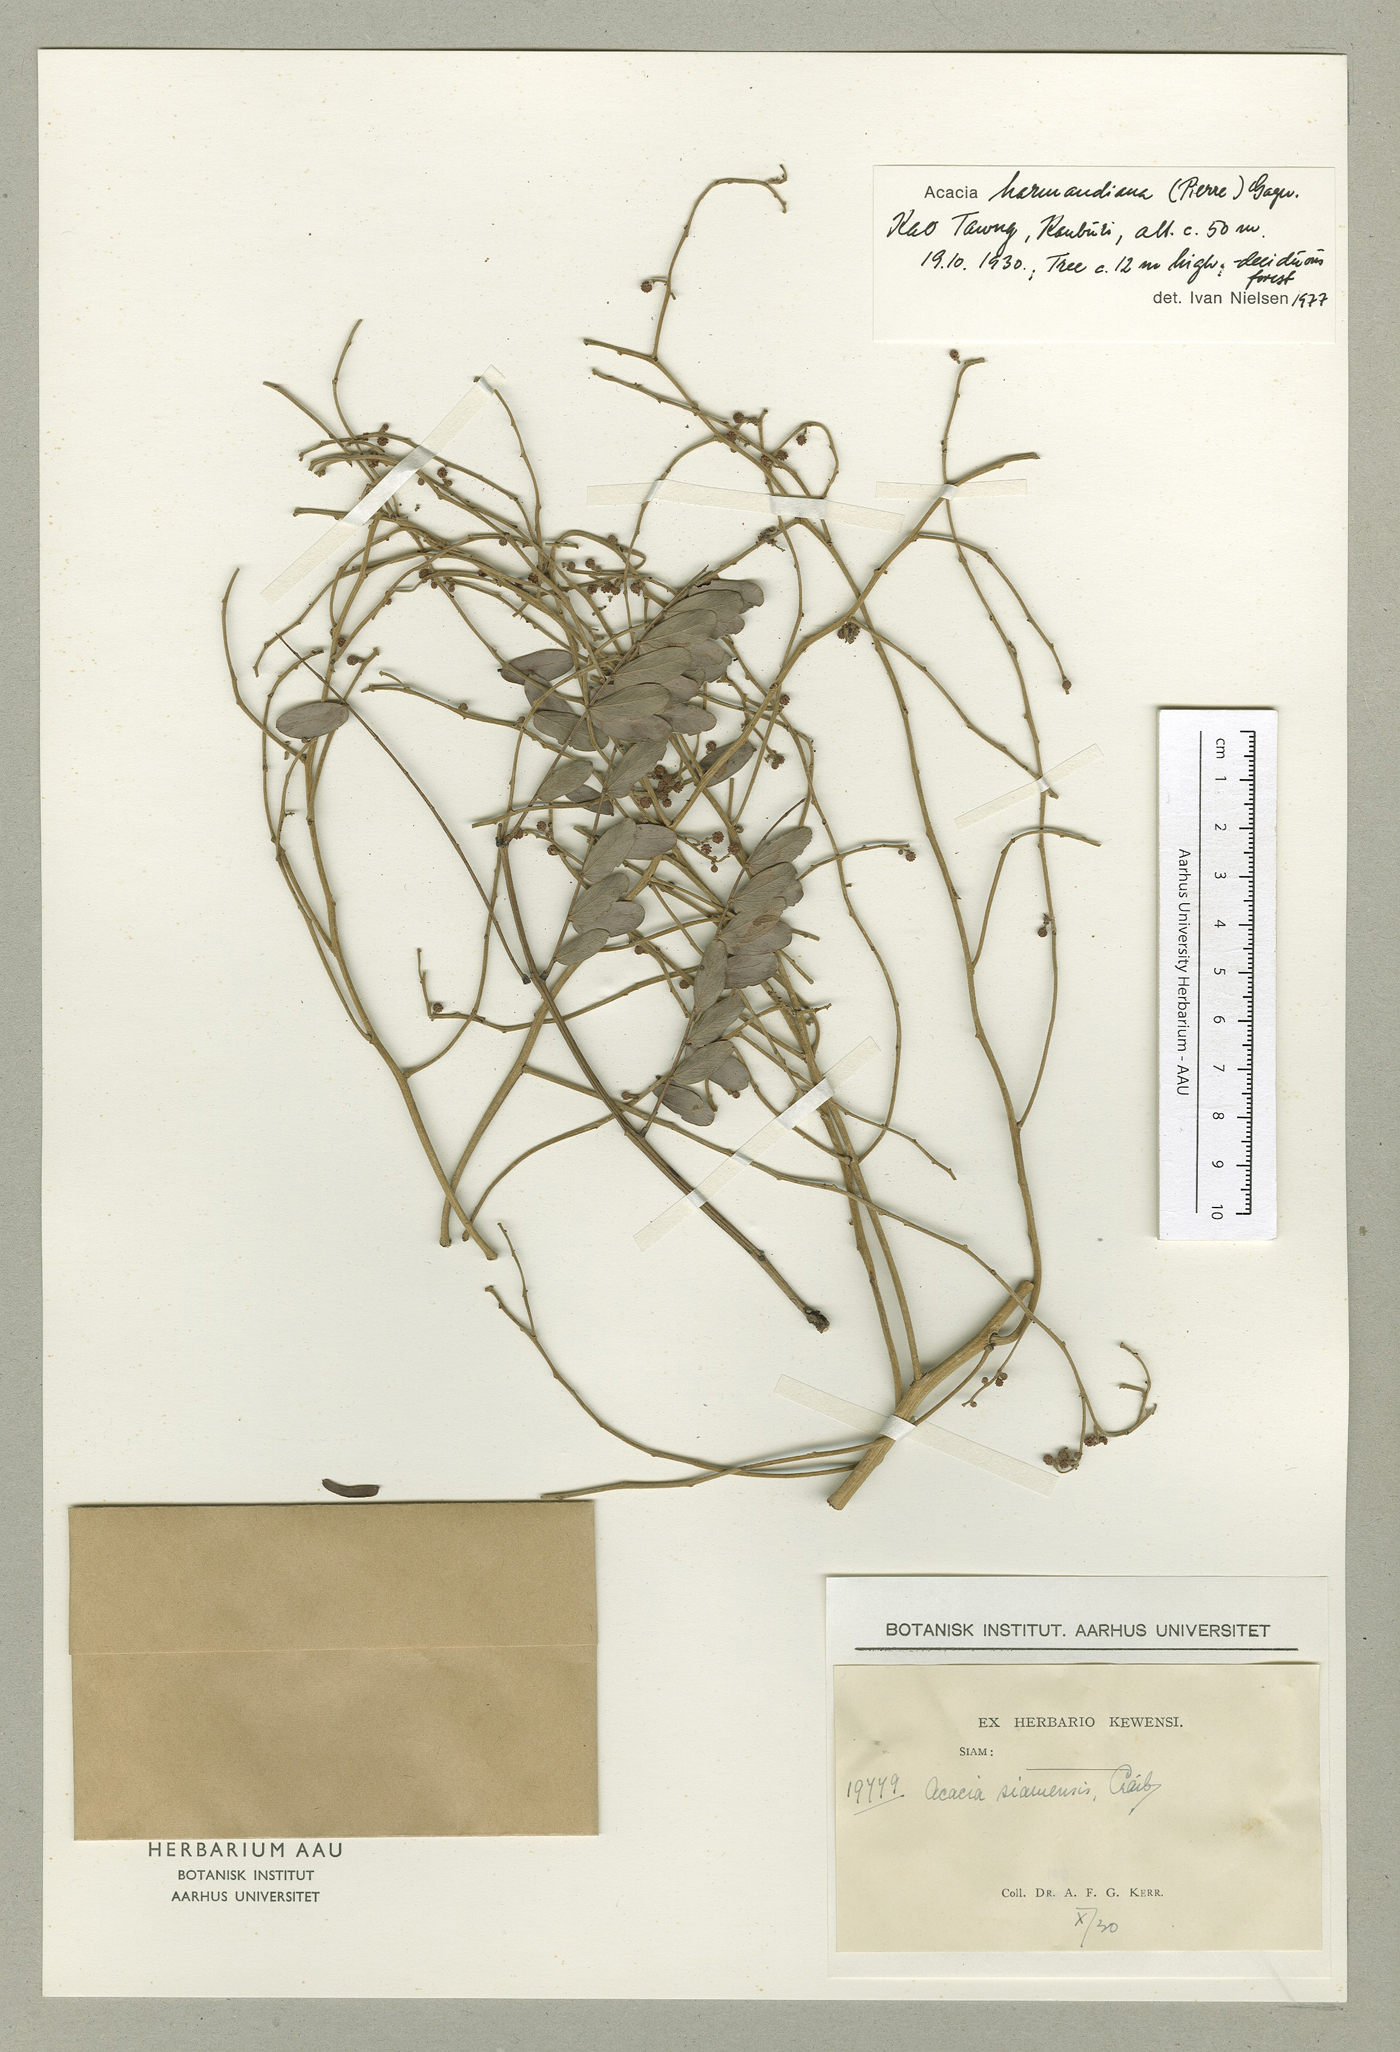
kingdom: Plantae
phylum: Tracheophyta
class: Magnoliopsida
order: Fabales
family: Fabaceae
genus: Vachellia
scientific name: Vachellia harmandiana
